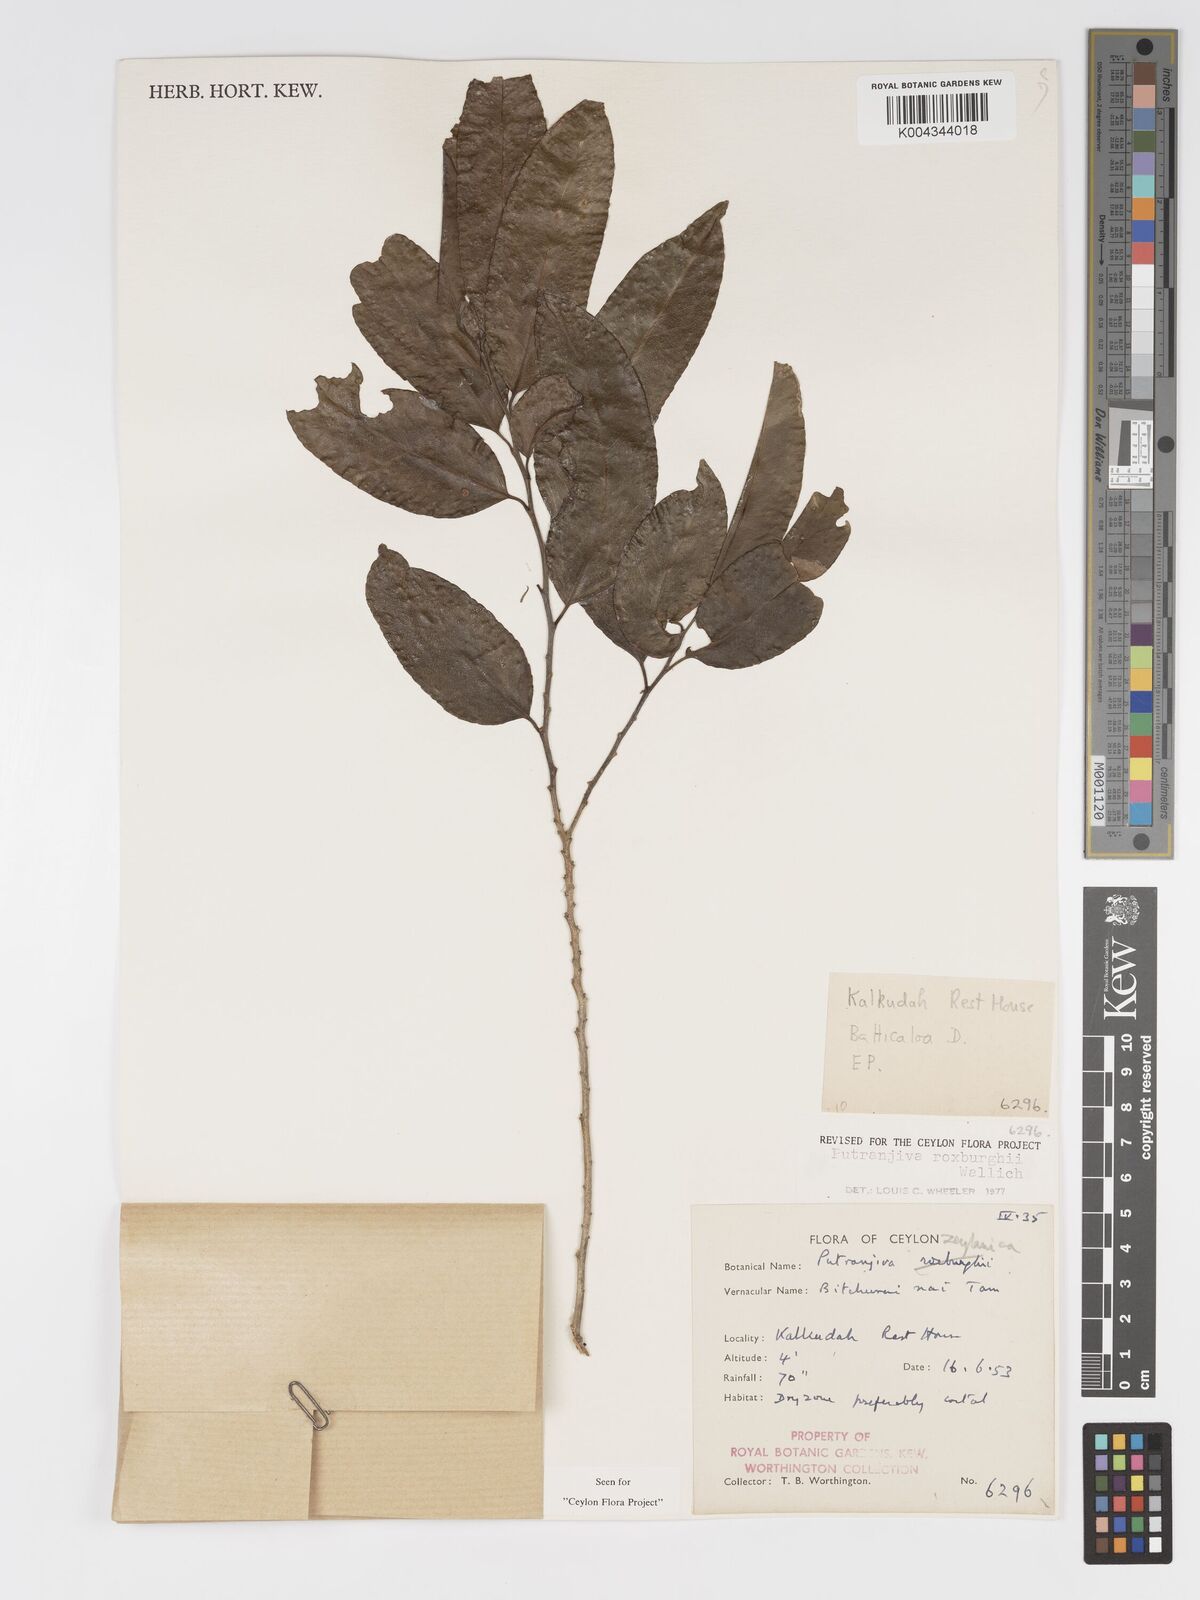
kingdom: Plantae
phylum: Tracheophyta
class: Magnoliopsida
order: Malpighiales
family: Putranjivaceae
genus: Putranjiva
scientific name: Putranjiva roxburghii
